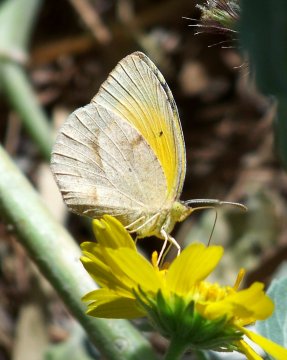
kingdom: Animalia
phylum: Arthropoda
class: Insecta
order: Lepidoptera
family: Pieridae
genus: Abaeis
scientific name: Abaeis nicippe
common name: Sleepy Orange
